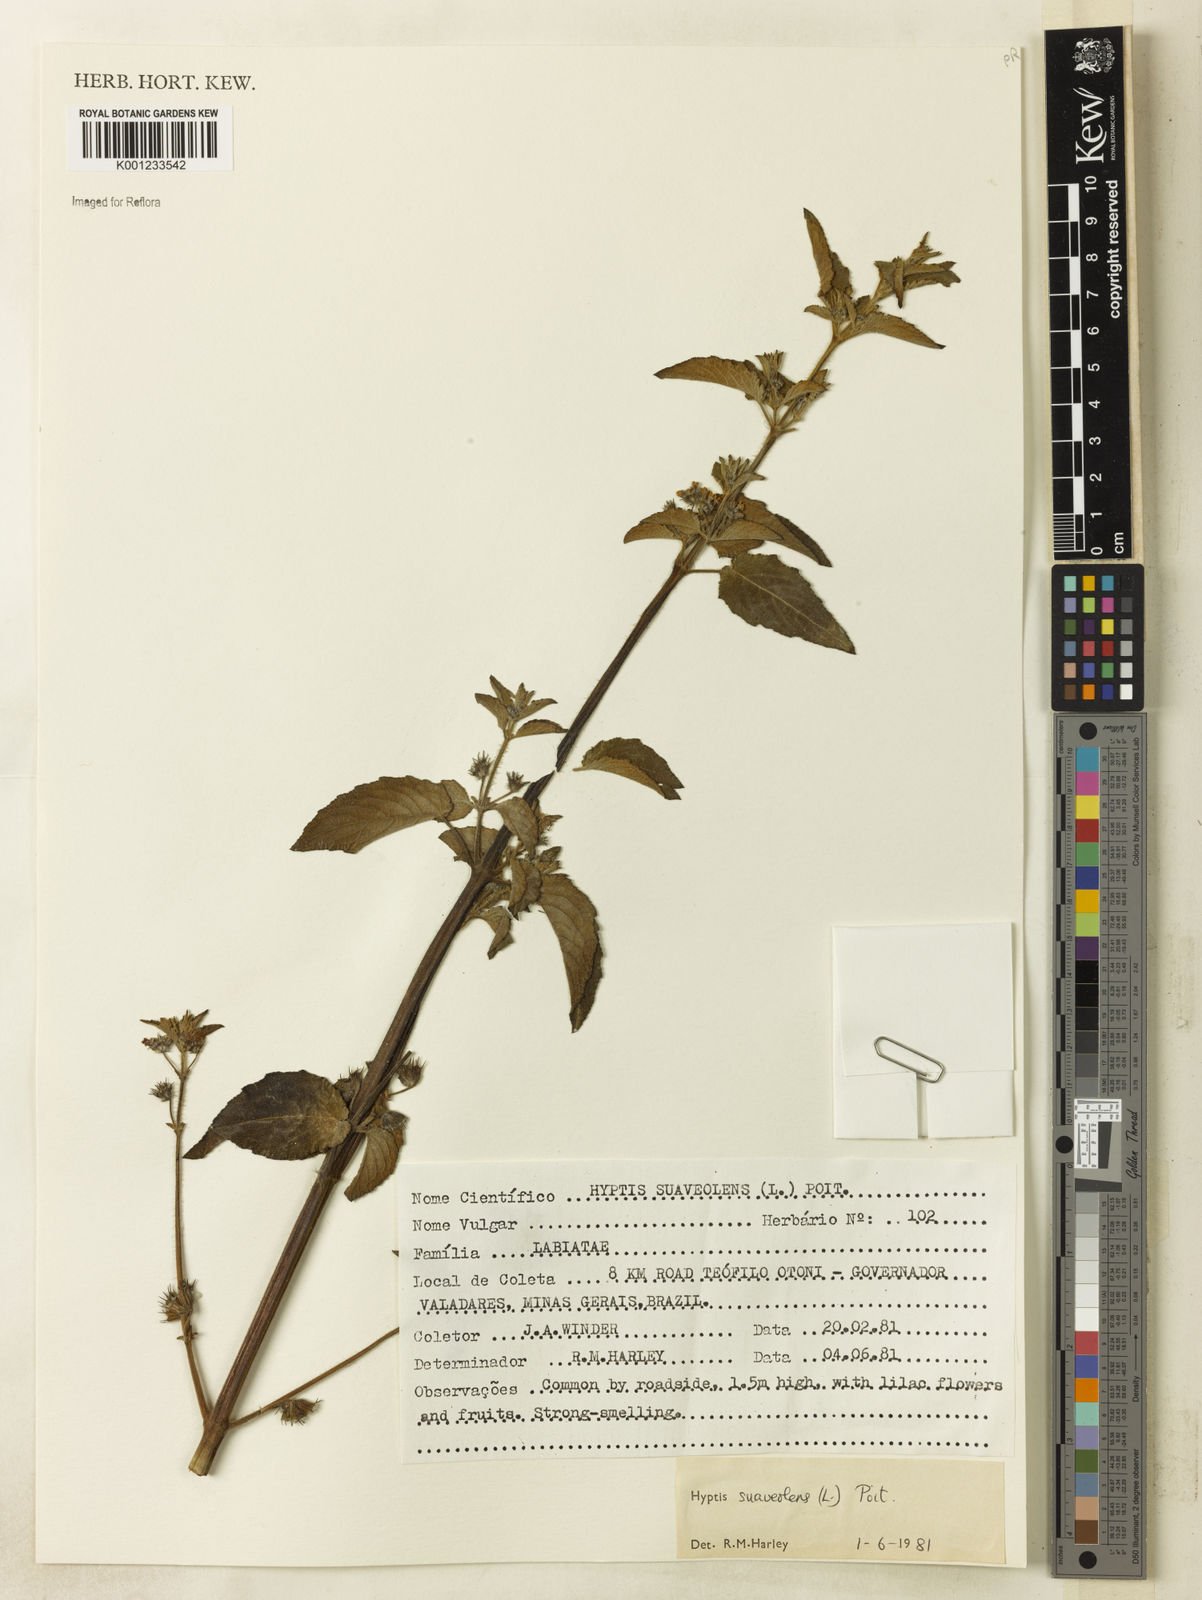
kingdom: Plantae
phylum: Tracheophyta
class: Magnoliopsida
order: Lamiales
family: Lamiaceae
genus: Mesosphaerum
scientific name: Mesosphaerum suaveolens
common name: Pignut
